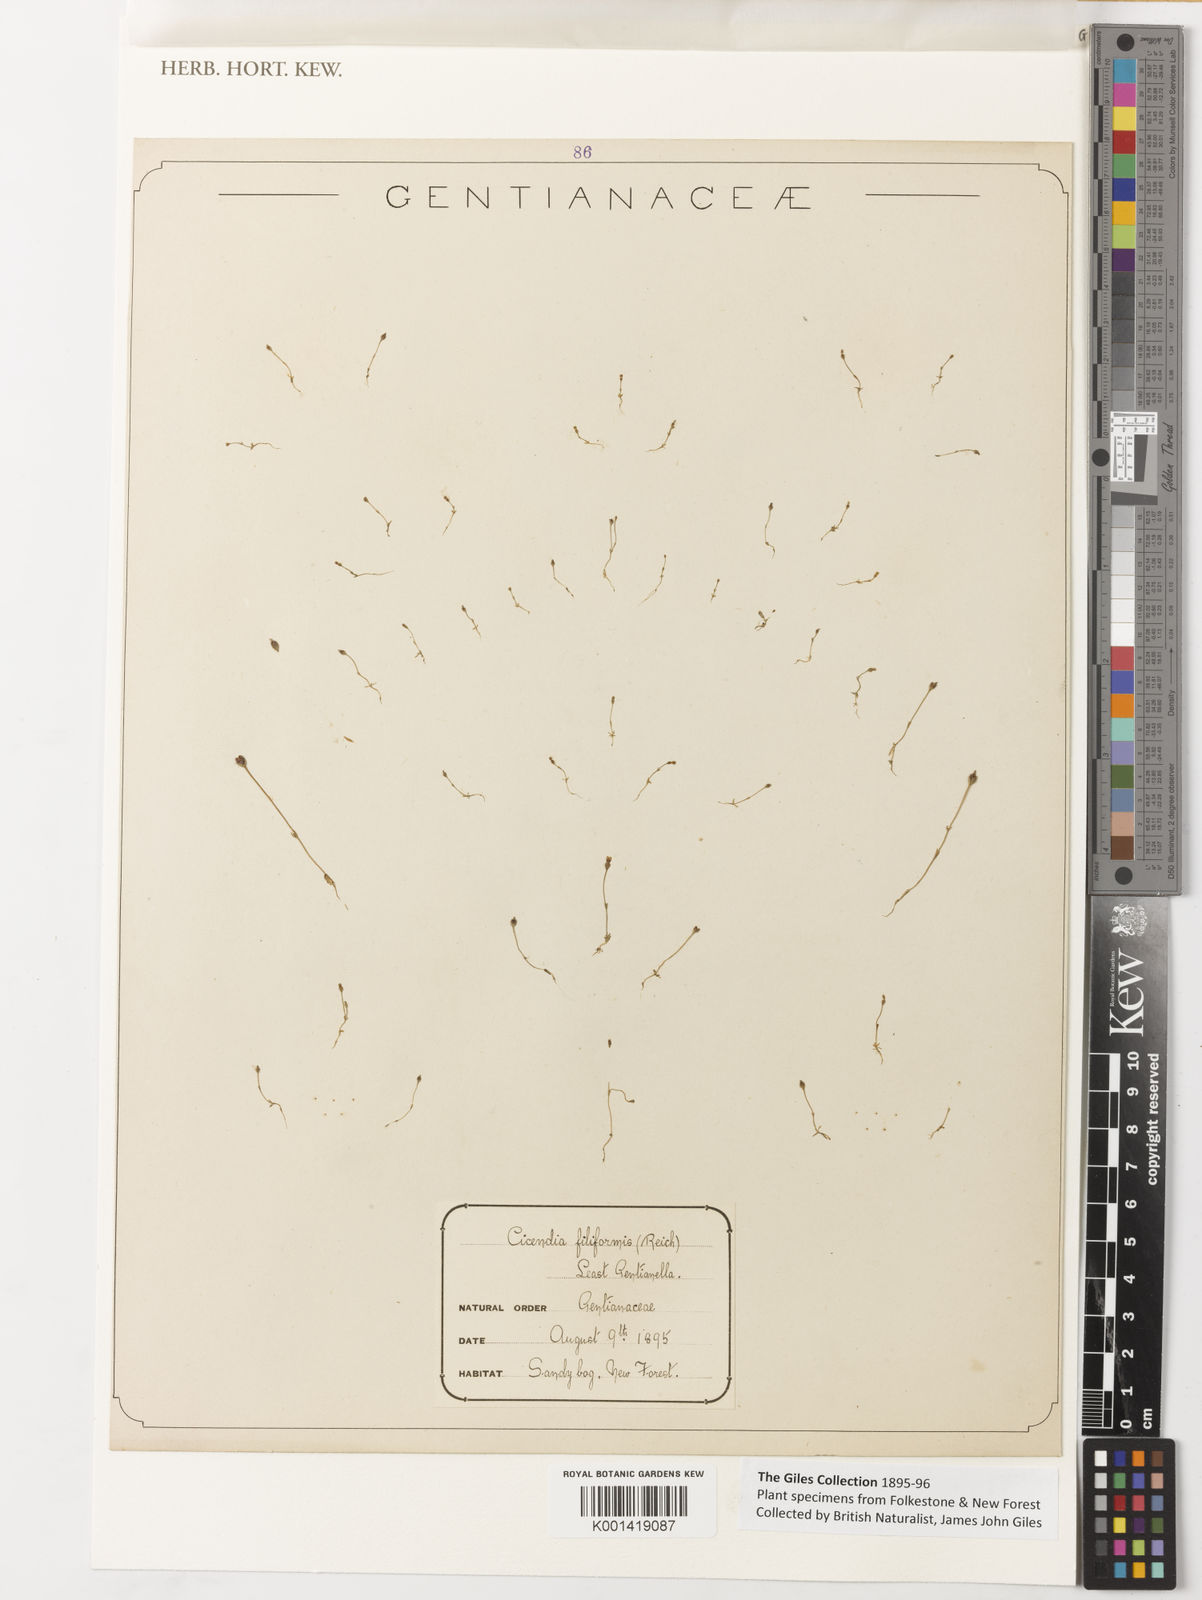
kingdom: Plantae
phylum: Tracheophyta
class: Magnoliopsida
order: Gentianales
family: Gentianaceae
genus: Cicendia
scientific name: Cicendia
